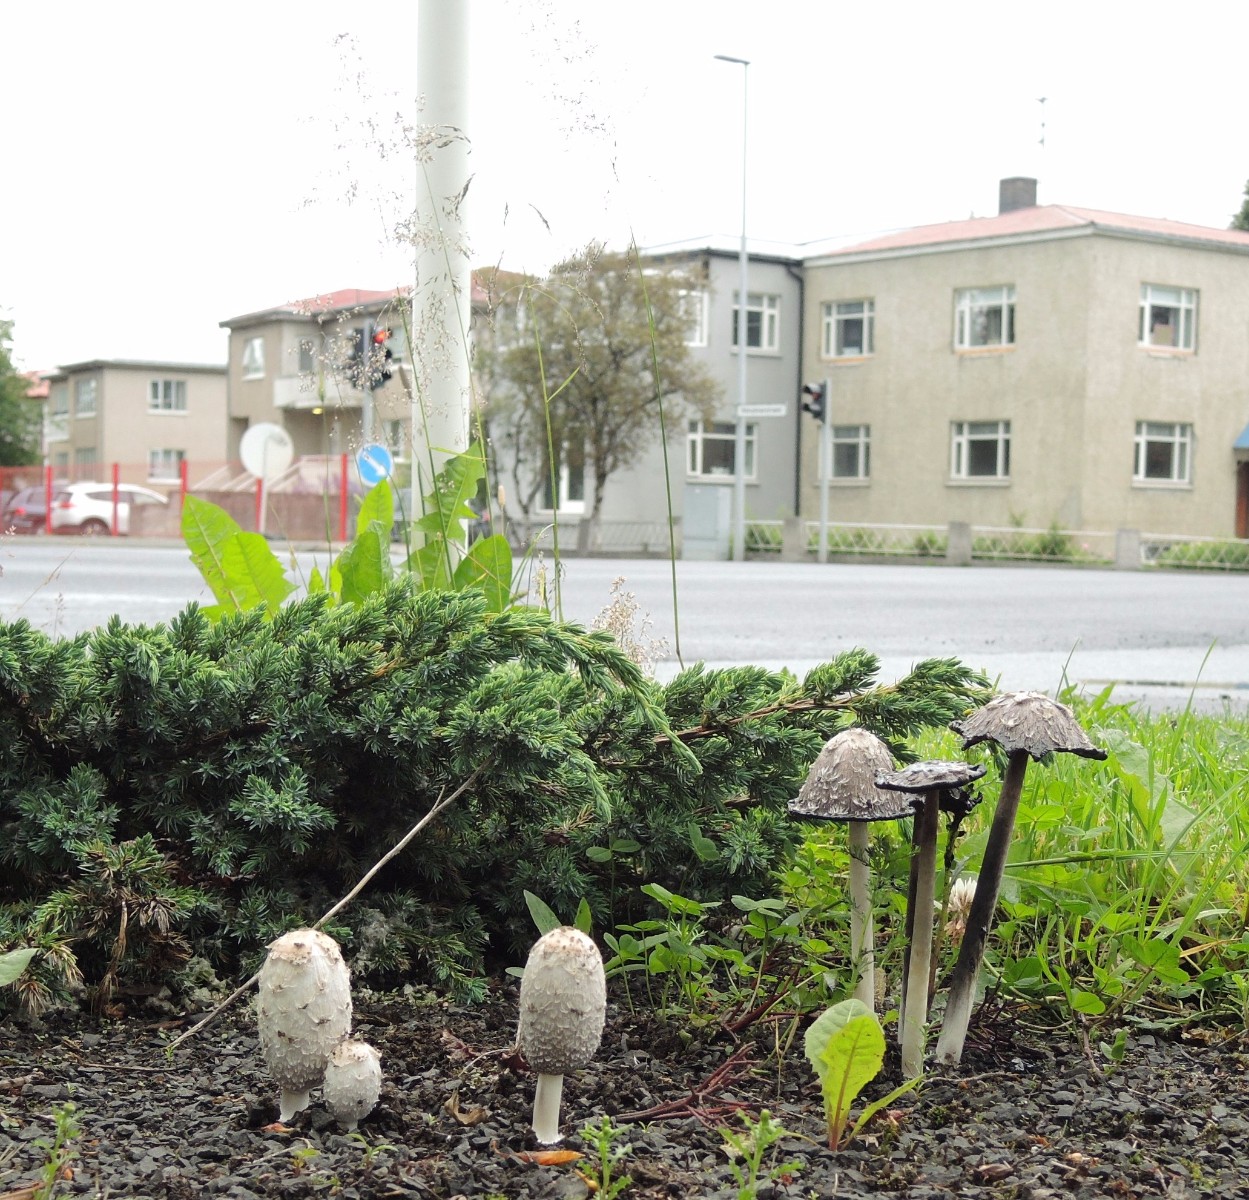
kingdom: Fungi
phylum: Basidiomycota
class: Agaricomycetes
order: Agaricales
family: Agaricaceae
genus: Coprinus
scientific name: Coprinus comatus
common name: stor parykhat
